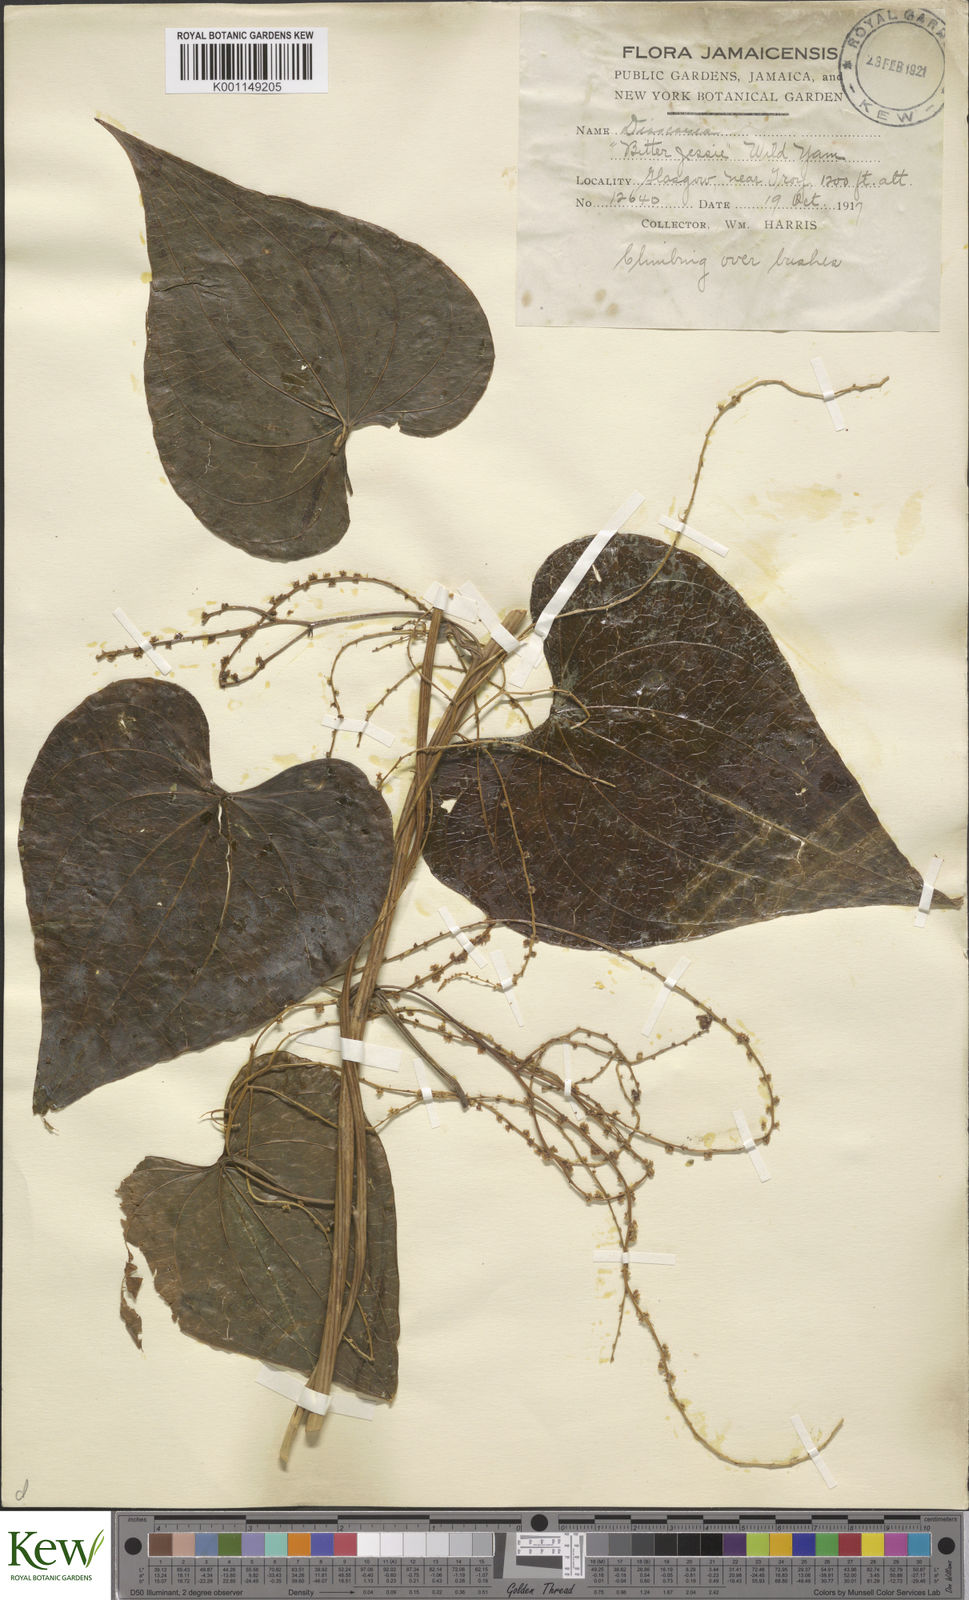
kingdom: Plantae
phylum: Tracheophyta
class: Liliopsida
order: Dioscoreales
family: Dioscoreaceae
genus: Dioscorea
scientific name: Dioscorea polygonoides
